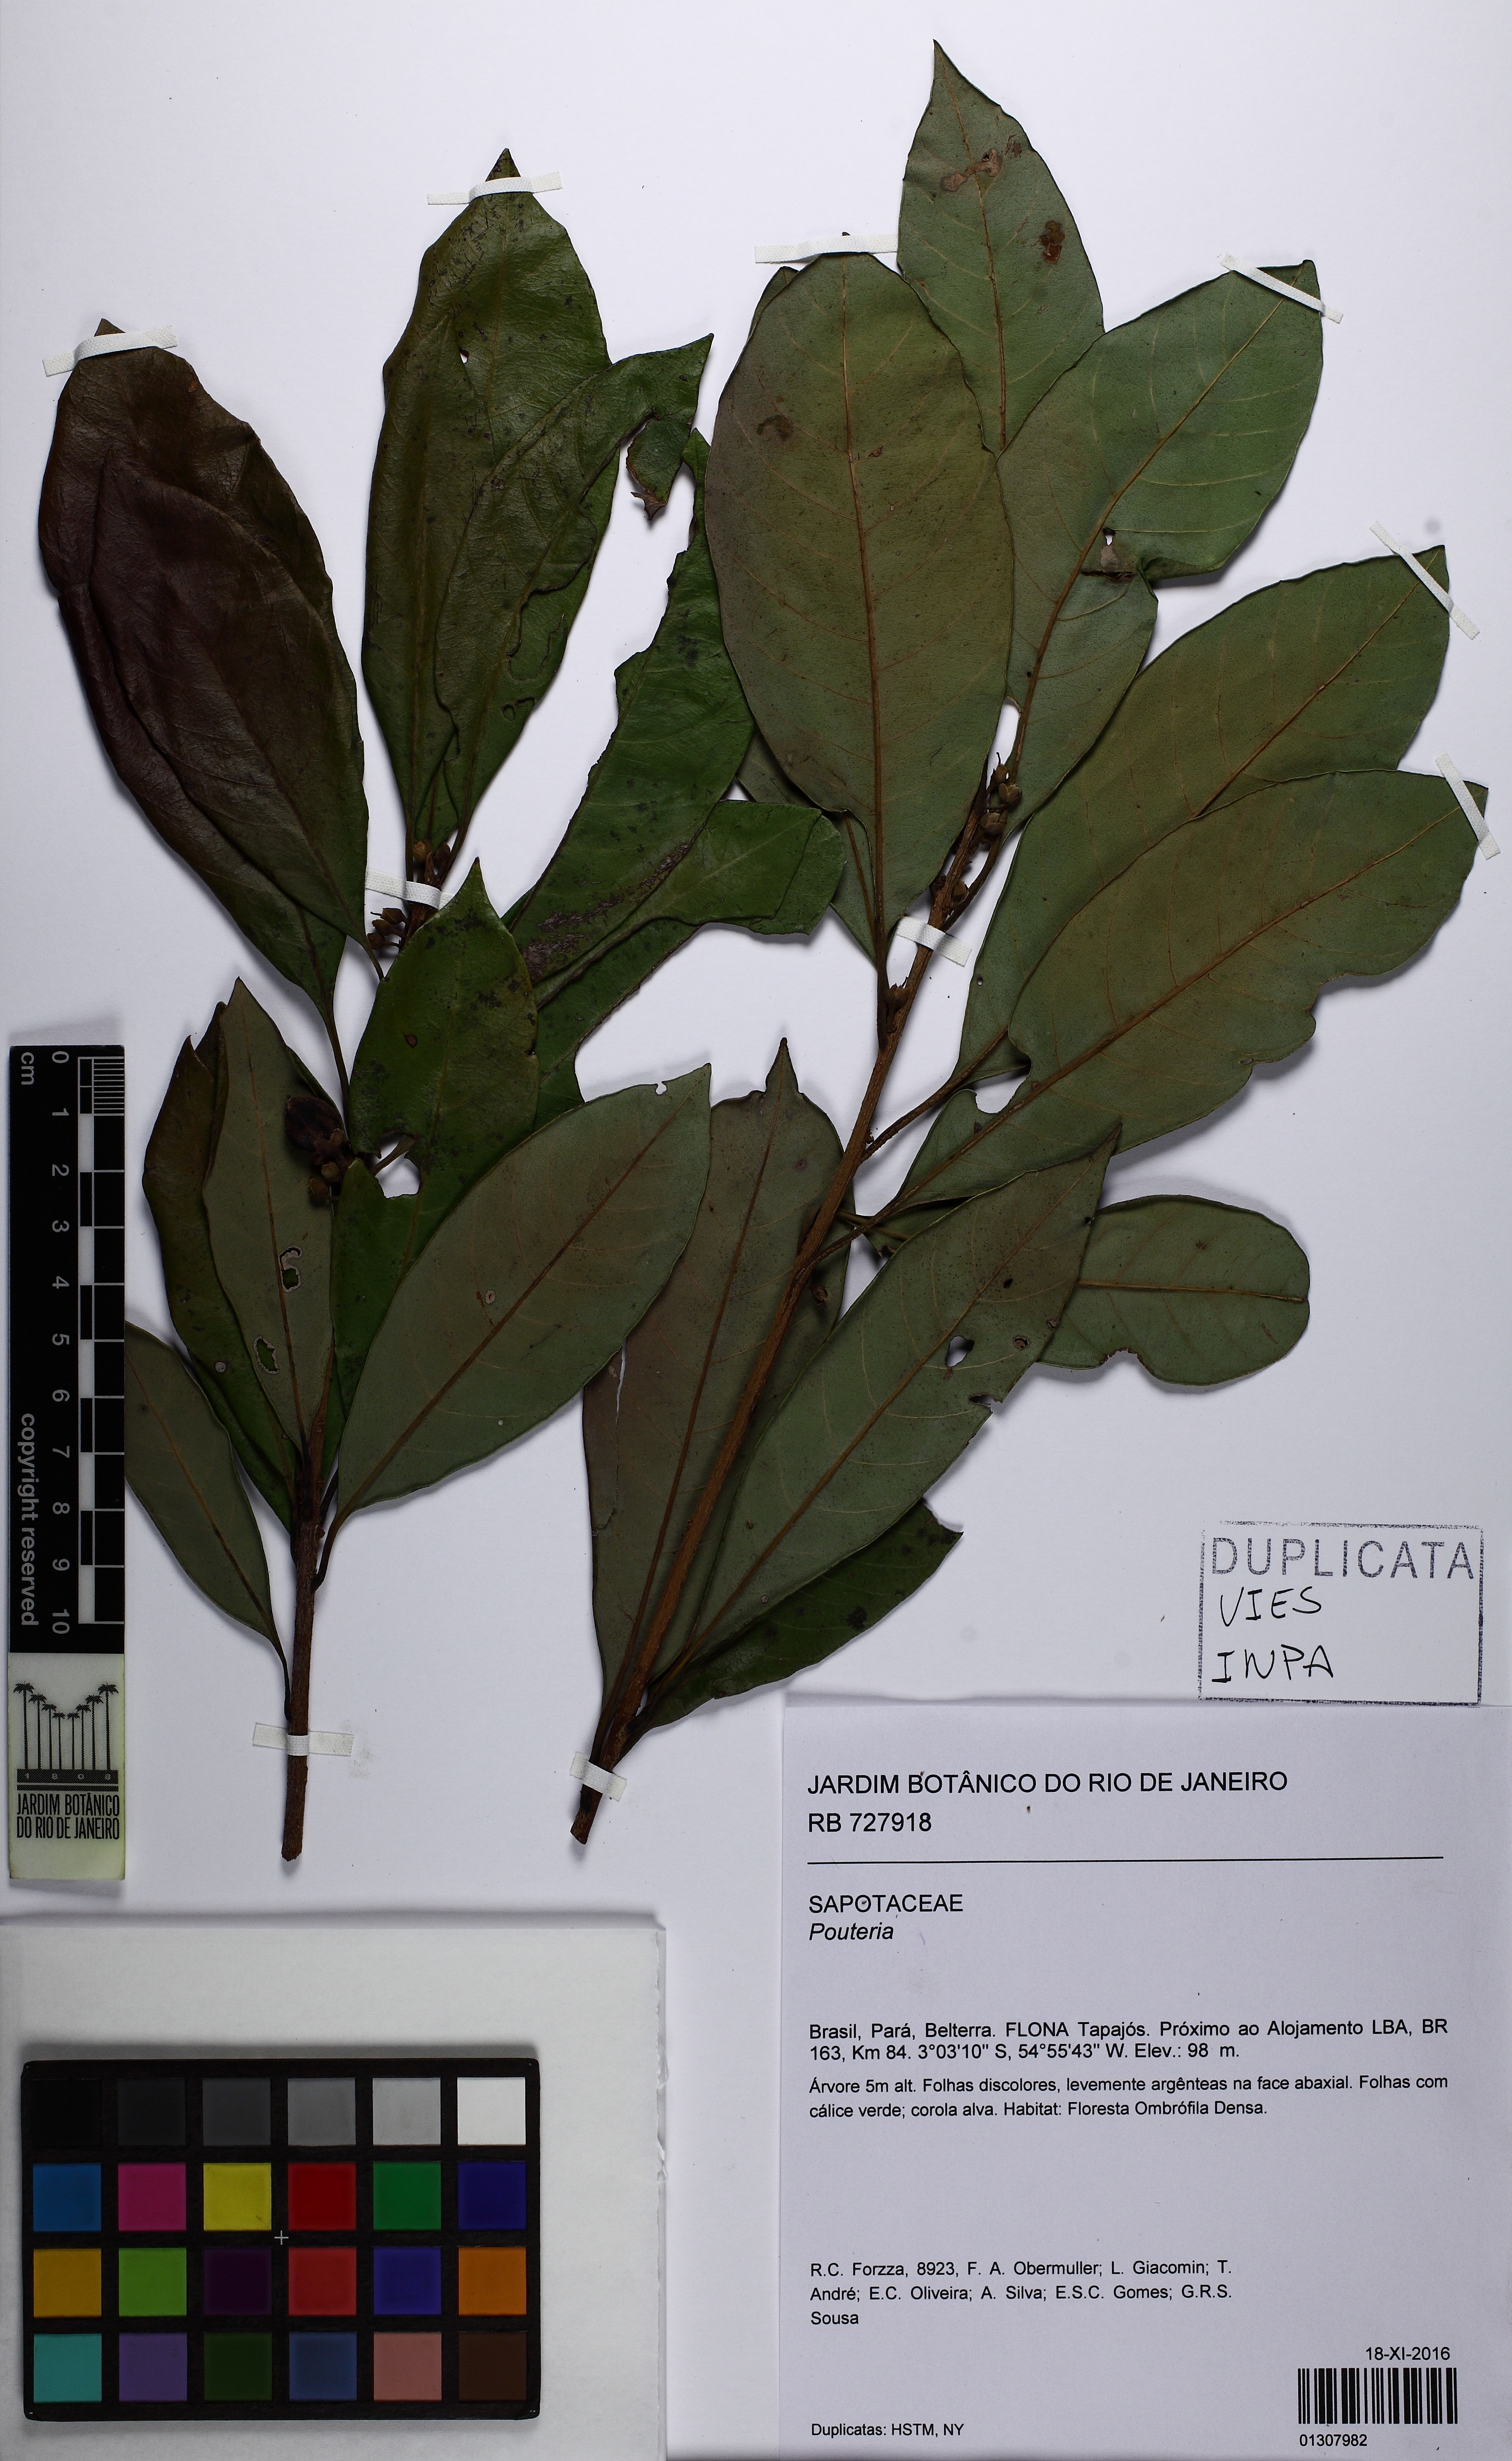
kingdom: Plantae
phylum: Tracheophyta
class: Magnoliopsida
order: Ericales
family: Sapotaceae
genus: Pouteria
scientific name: Pouteria
